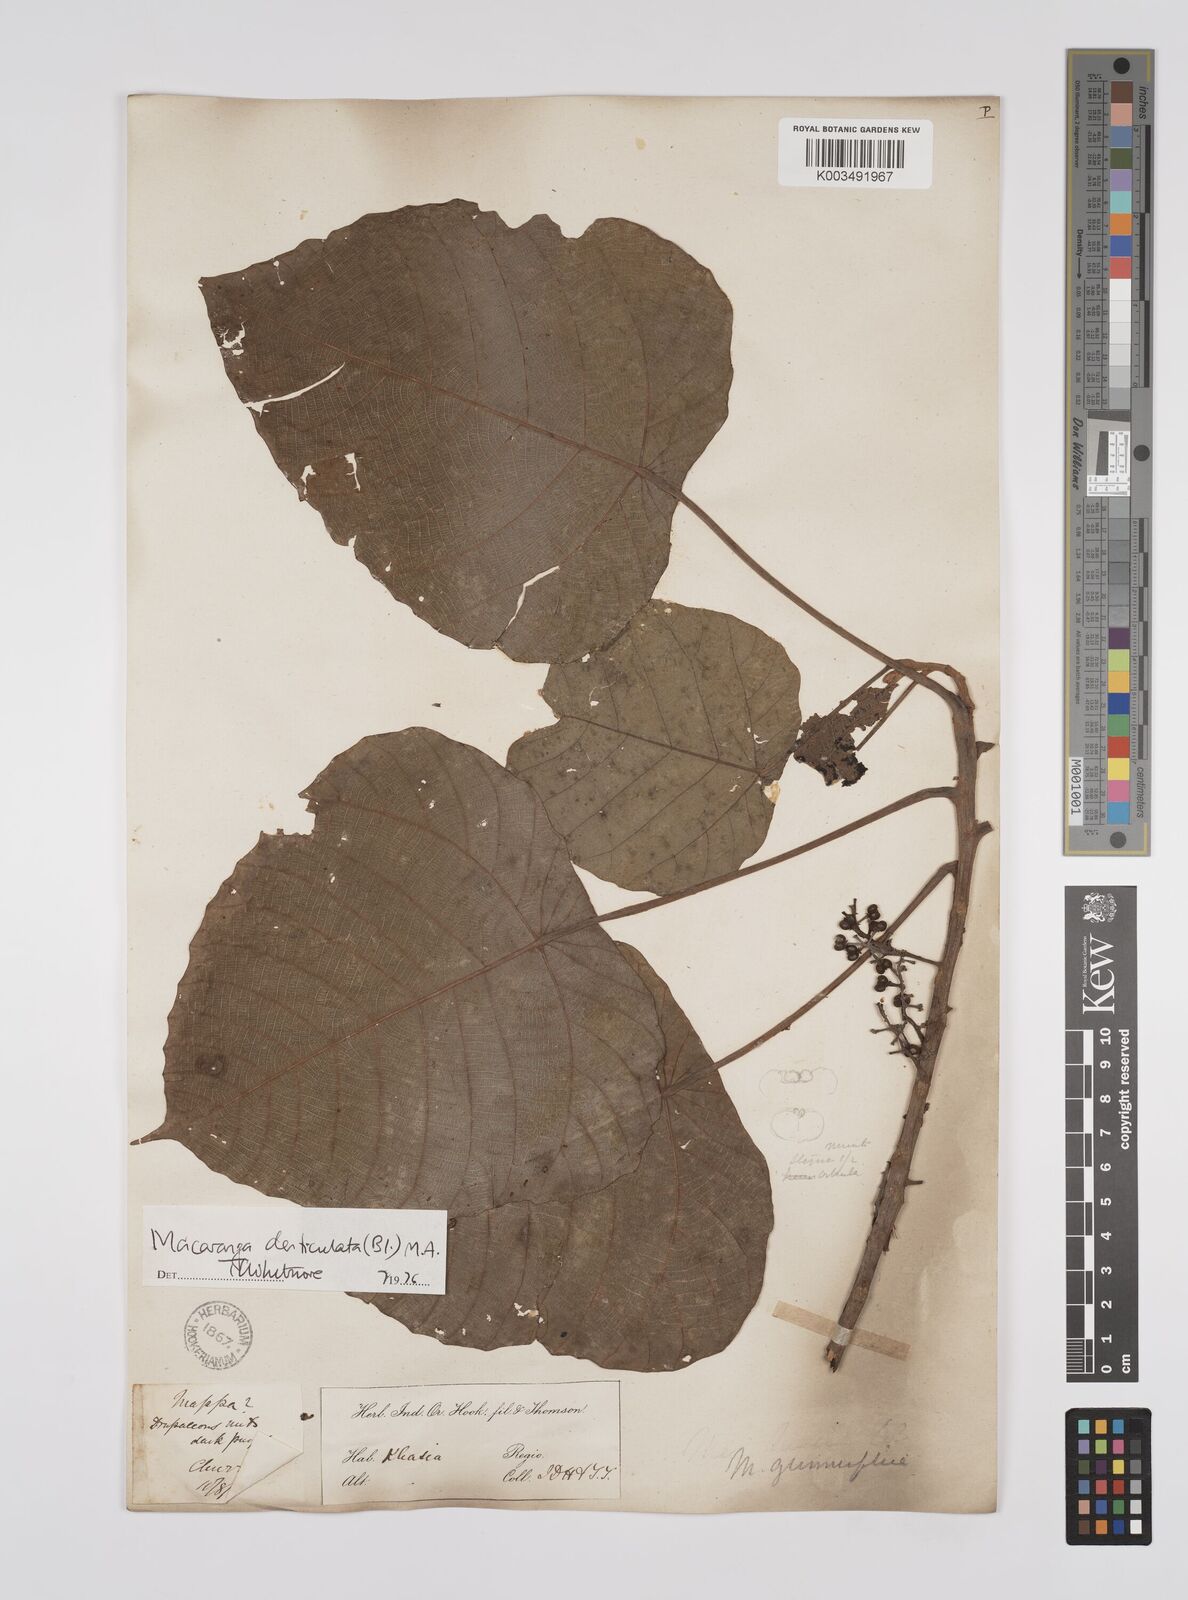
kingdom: Plantae
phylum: Tracheophyta
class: Magnoliopsida
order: Malpighiales
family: Euphorbiaceae
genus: Macaranga
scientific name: Macaranga denticulata
